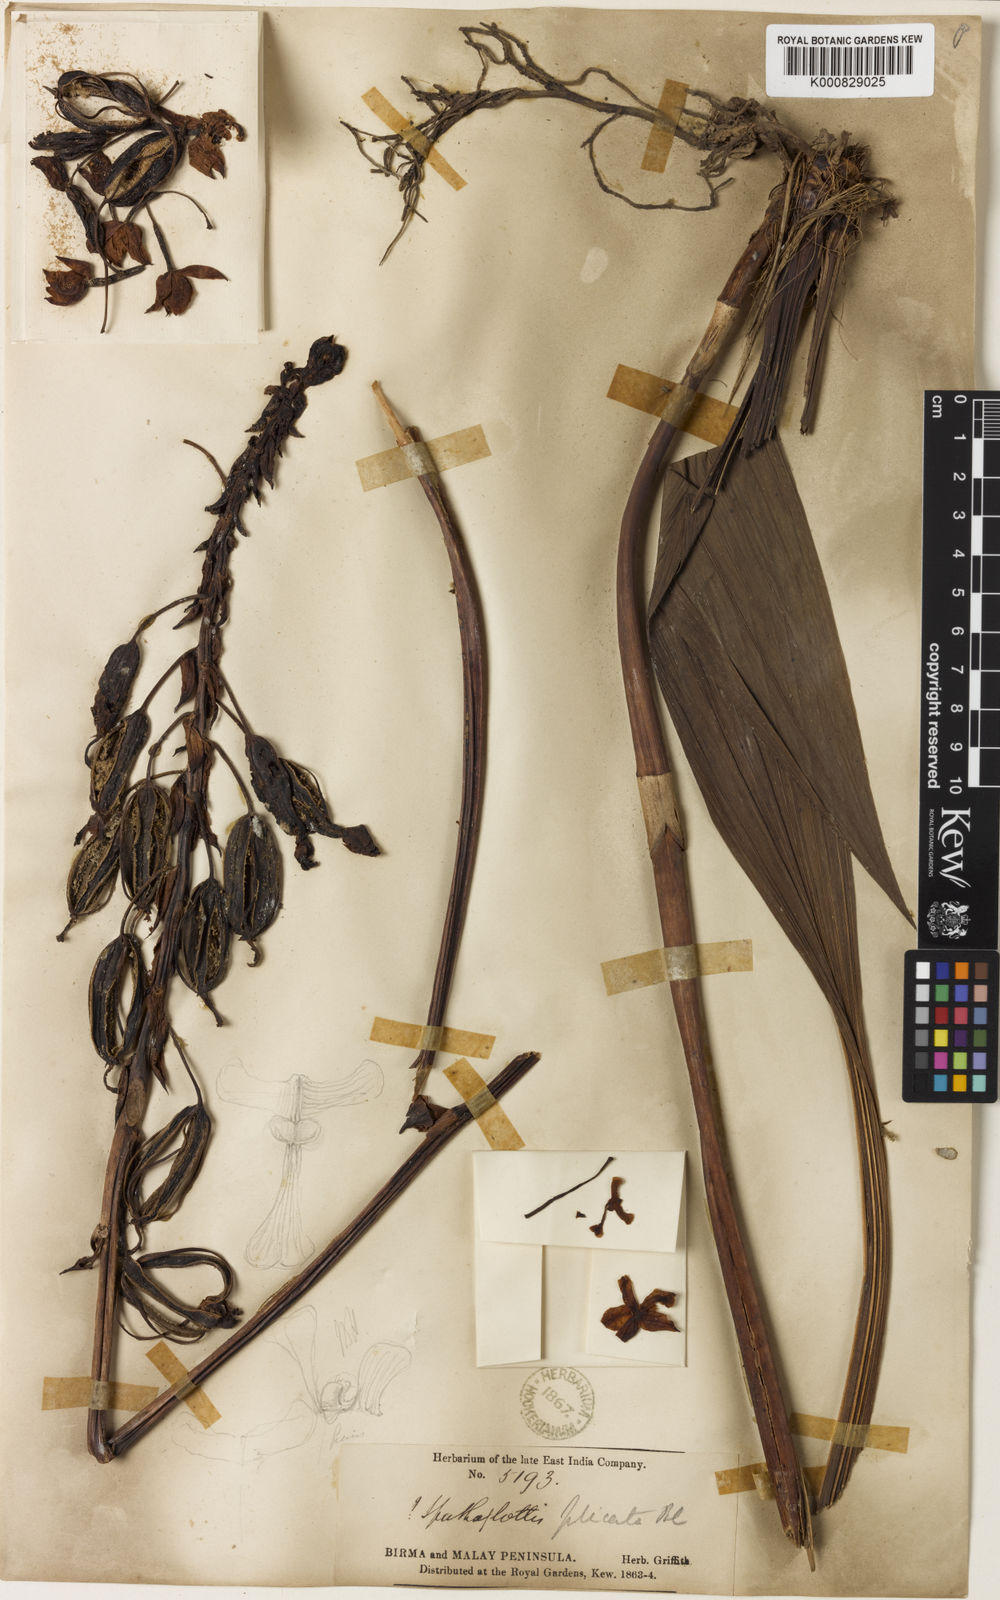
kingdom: Plantae
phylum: Tracheophyta
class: Liliopsida
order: Asparagales
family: Orchidaceae
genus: Spathoglottis
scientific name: Spathoglottis plicata
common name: Philippine ground orchid
